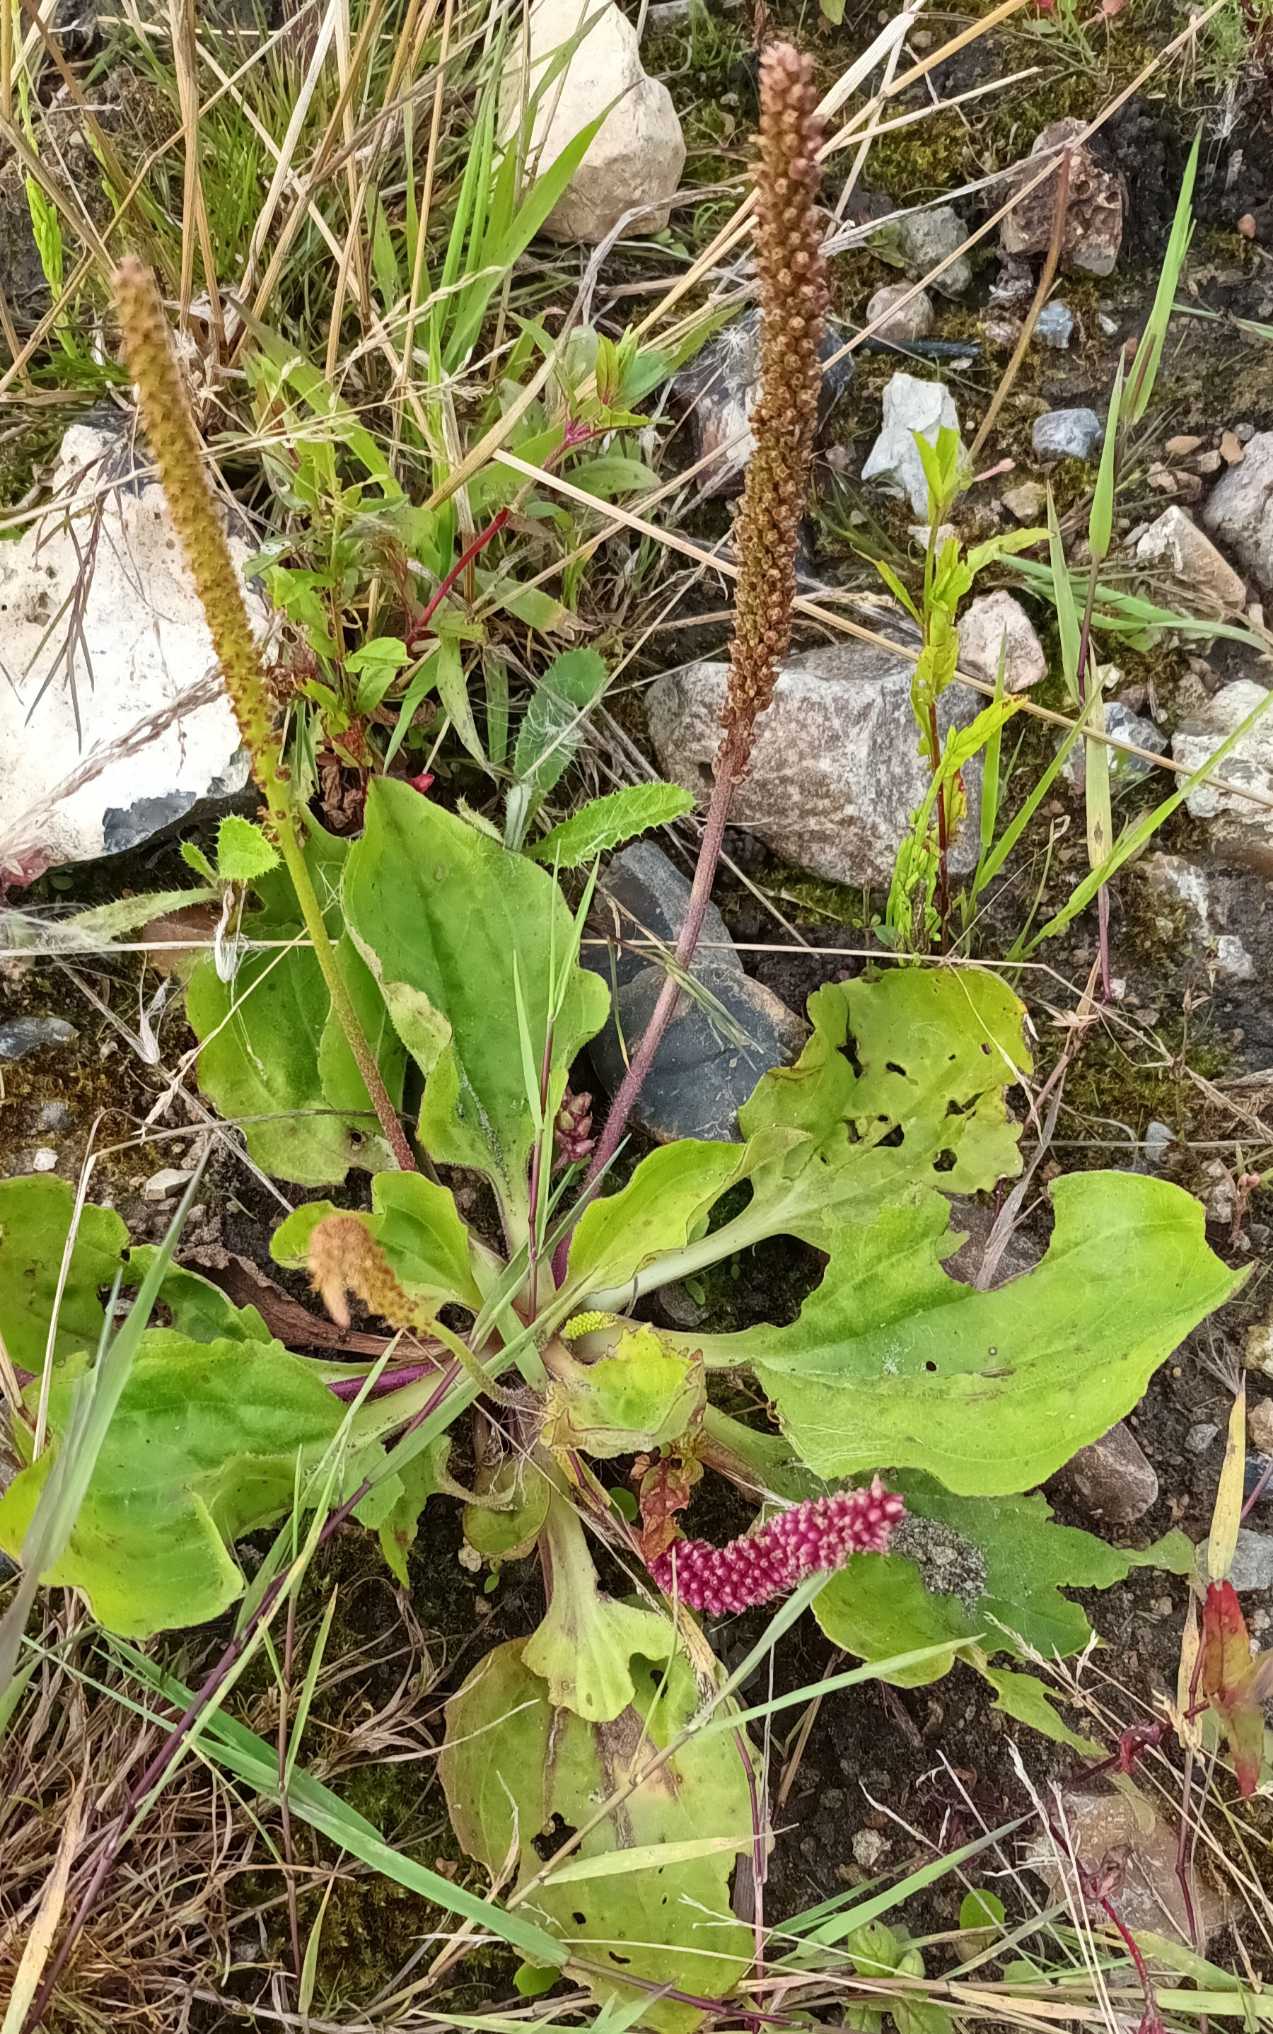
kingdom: Plantae
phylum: Tracheophyta
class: Magnoliopsida
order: Lamiales
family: Plantaginaceae
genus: Plantago
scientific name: Plantago major
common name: Glat vejbred
